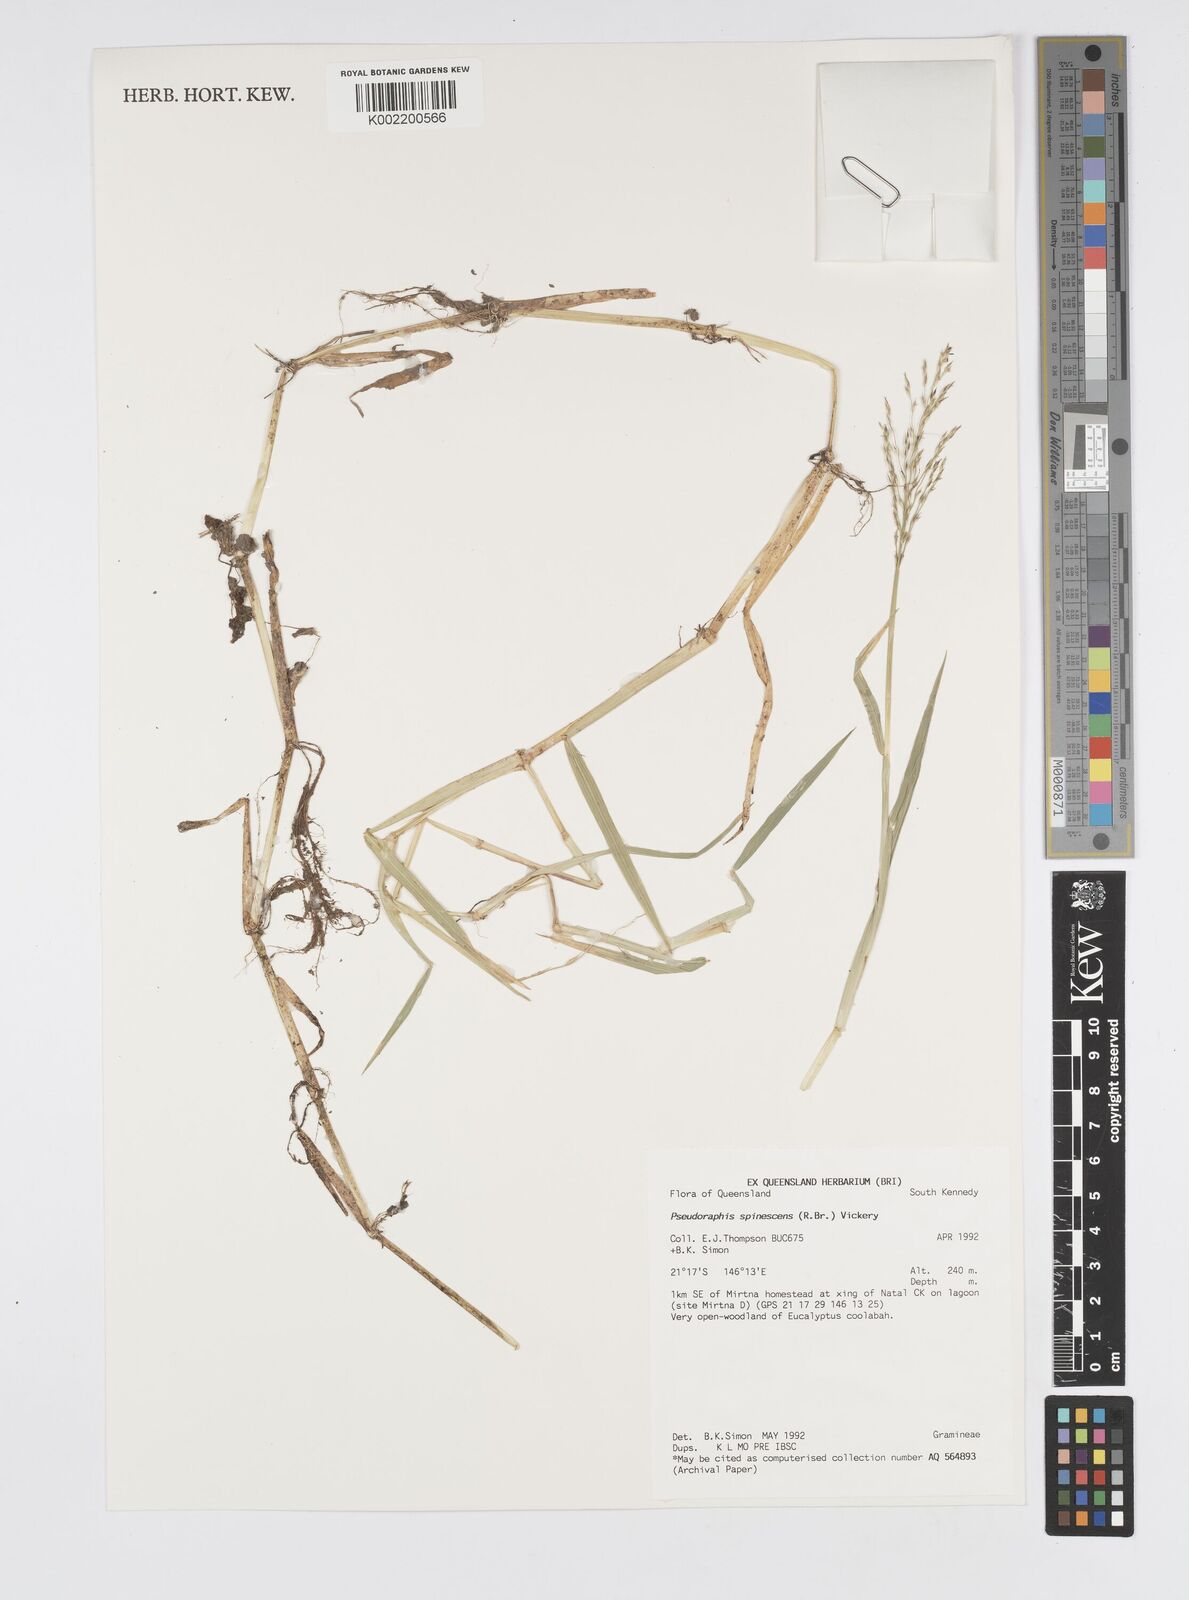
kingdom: Plantae
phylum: Tracheophyta
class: Liliopsida
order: Poales
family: Poaceae
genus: Pseudoraphis
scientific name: Pseudoraphis spinescens
